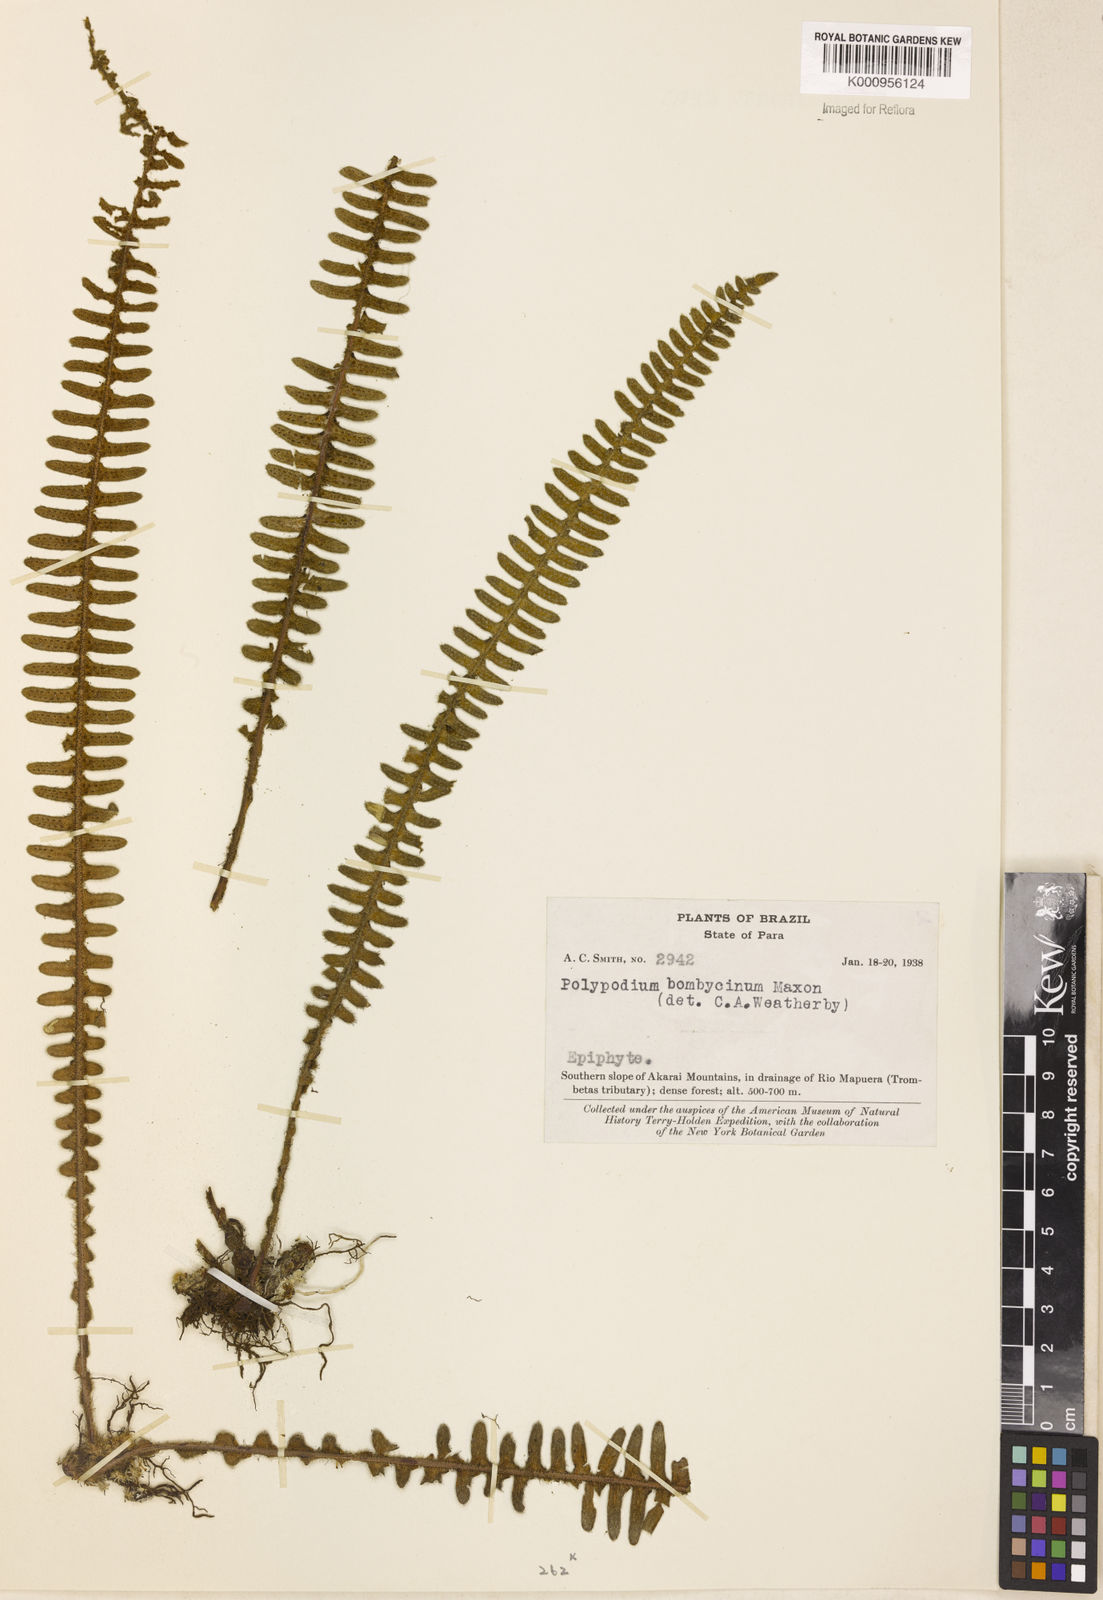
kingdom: Plantae
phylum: Tracheophyta
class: Polypodiopsida
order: Polypodiales
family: Polypodiaceae
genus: Pleopeltis
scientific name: Pleopeltis bombycina
